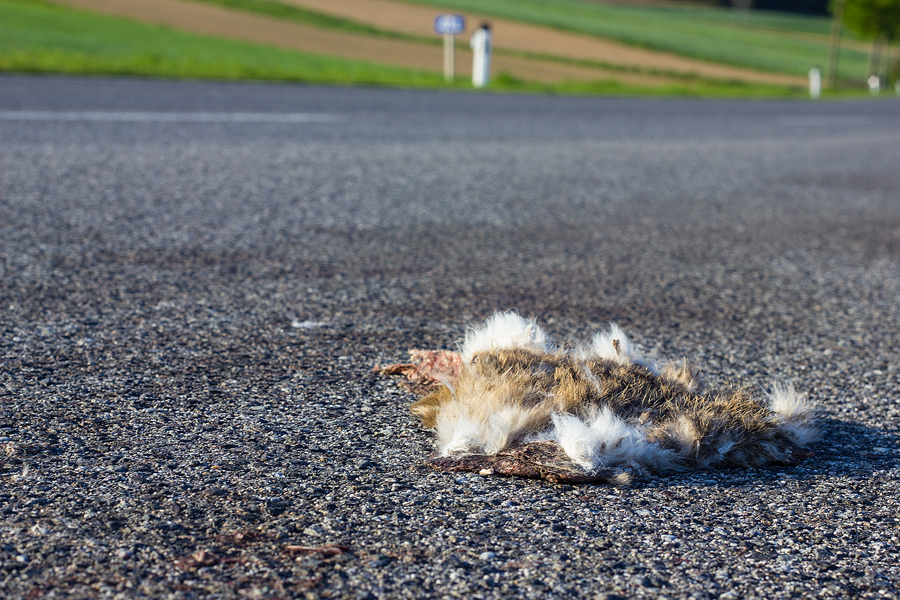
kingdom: Animalia
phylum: Chordata
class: Mammalia
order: Lagomorpha
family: Leporidae
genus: Lepus
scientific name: Lepus europaeus
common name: European hare
